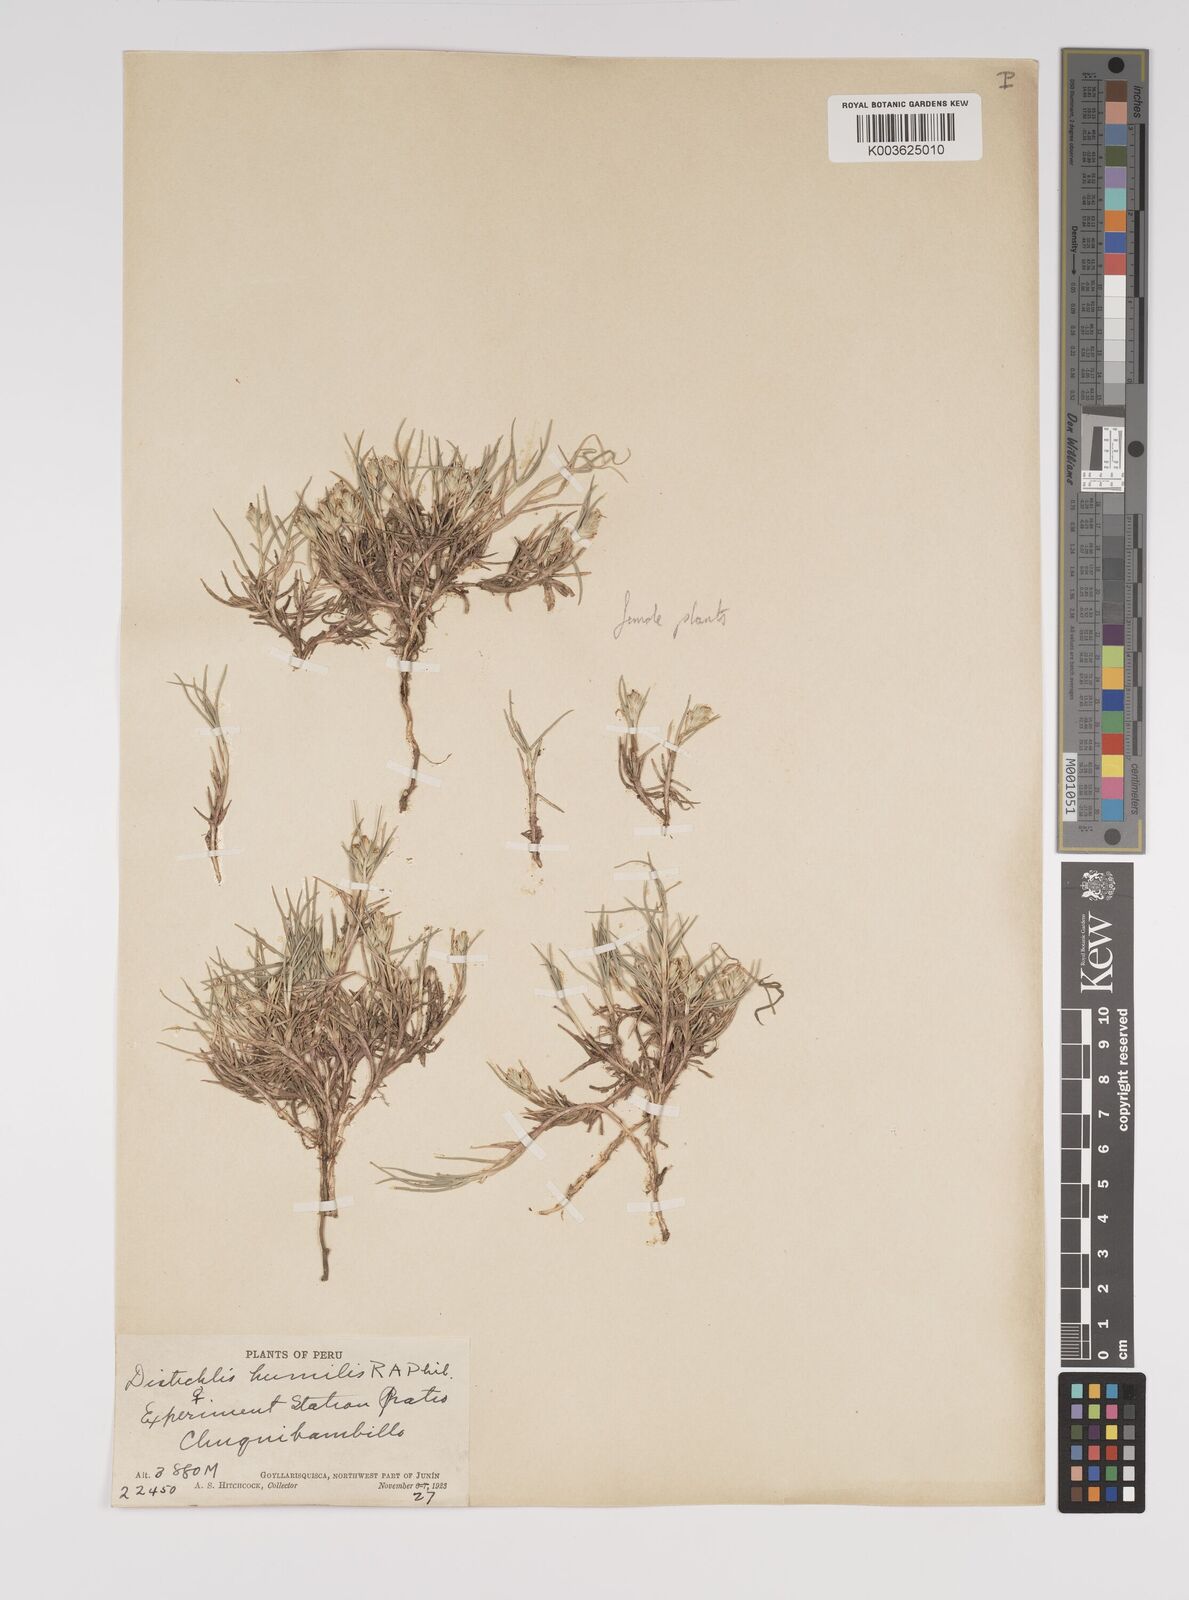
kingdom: Plantae
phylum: Tracheophyta
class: Liliopsida
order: Poales
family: Poaceae
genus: Distichlis
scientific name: Distichlis humilis
